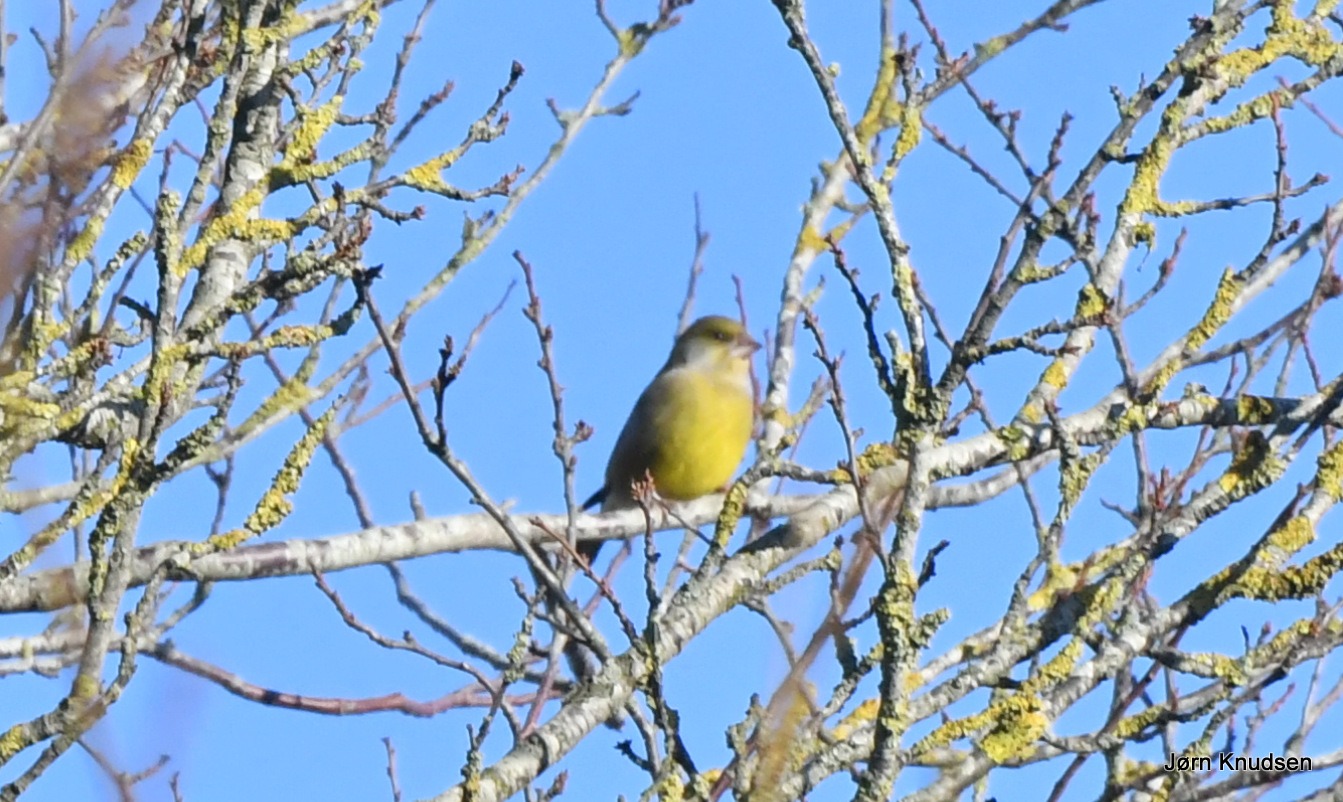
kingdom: Plantae
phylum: Tracheophyta
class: Liliopsida
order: Poales
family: Poaceae
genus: Chloris
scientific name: Chloris chloris
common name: Grønirisk
